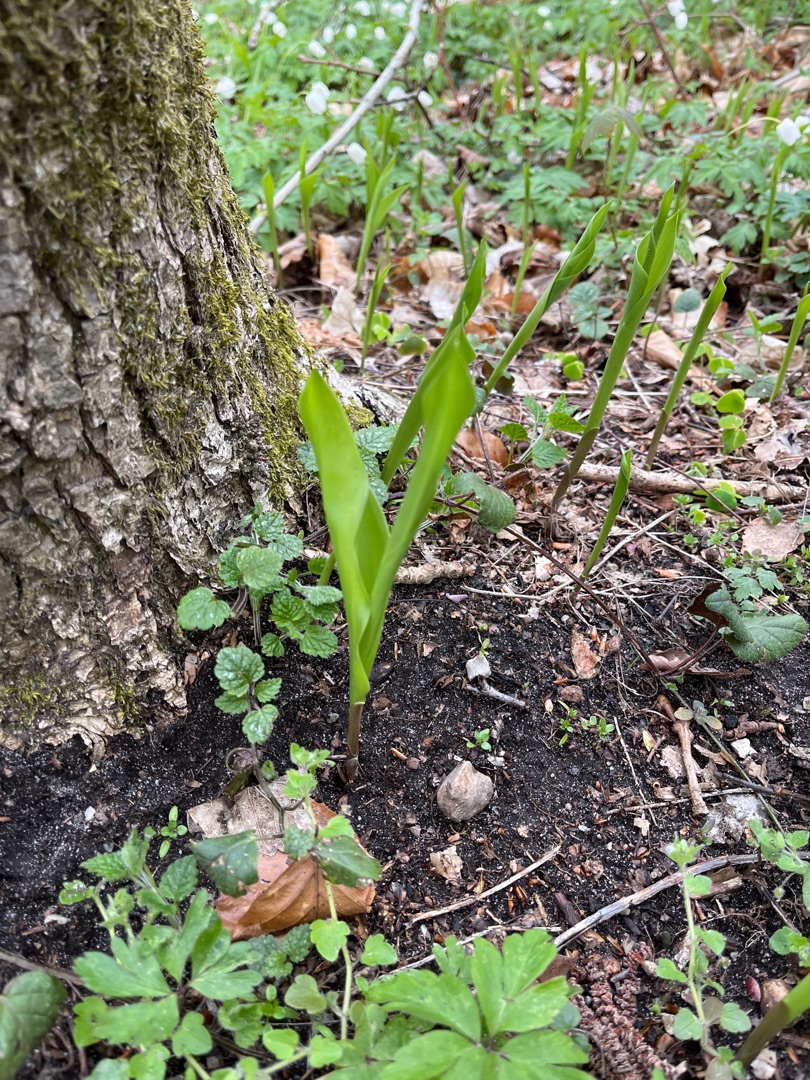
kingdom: Plantae
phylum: Tracheophyta
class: Liliopsida
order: Asparagales
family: Asparagaceae
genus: Convallaria
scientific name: Convallaria majalis
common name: Liljekonval
